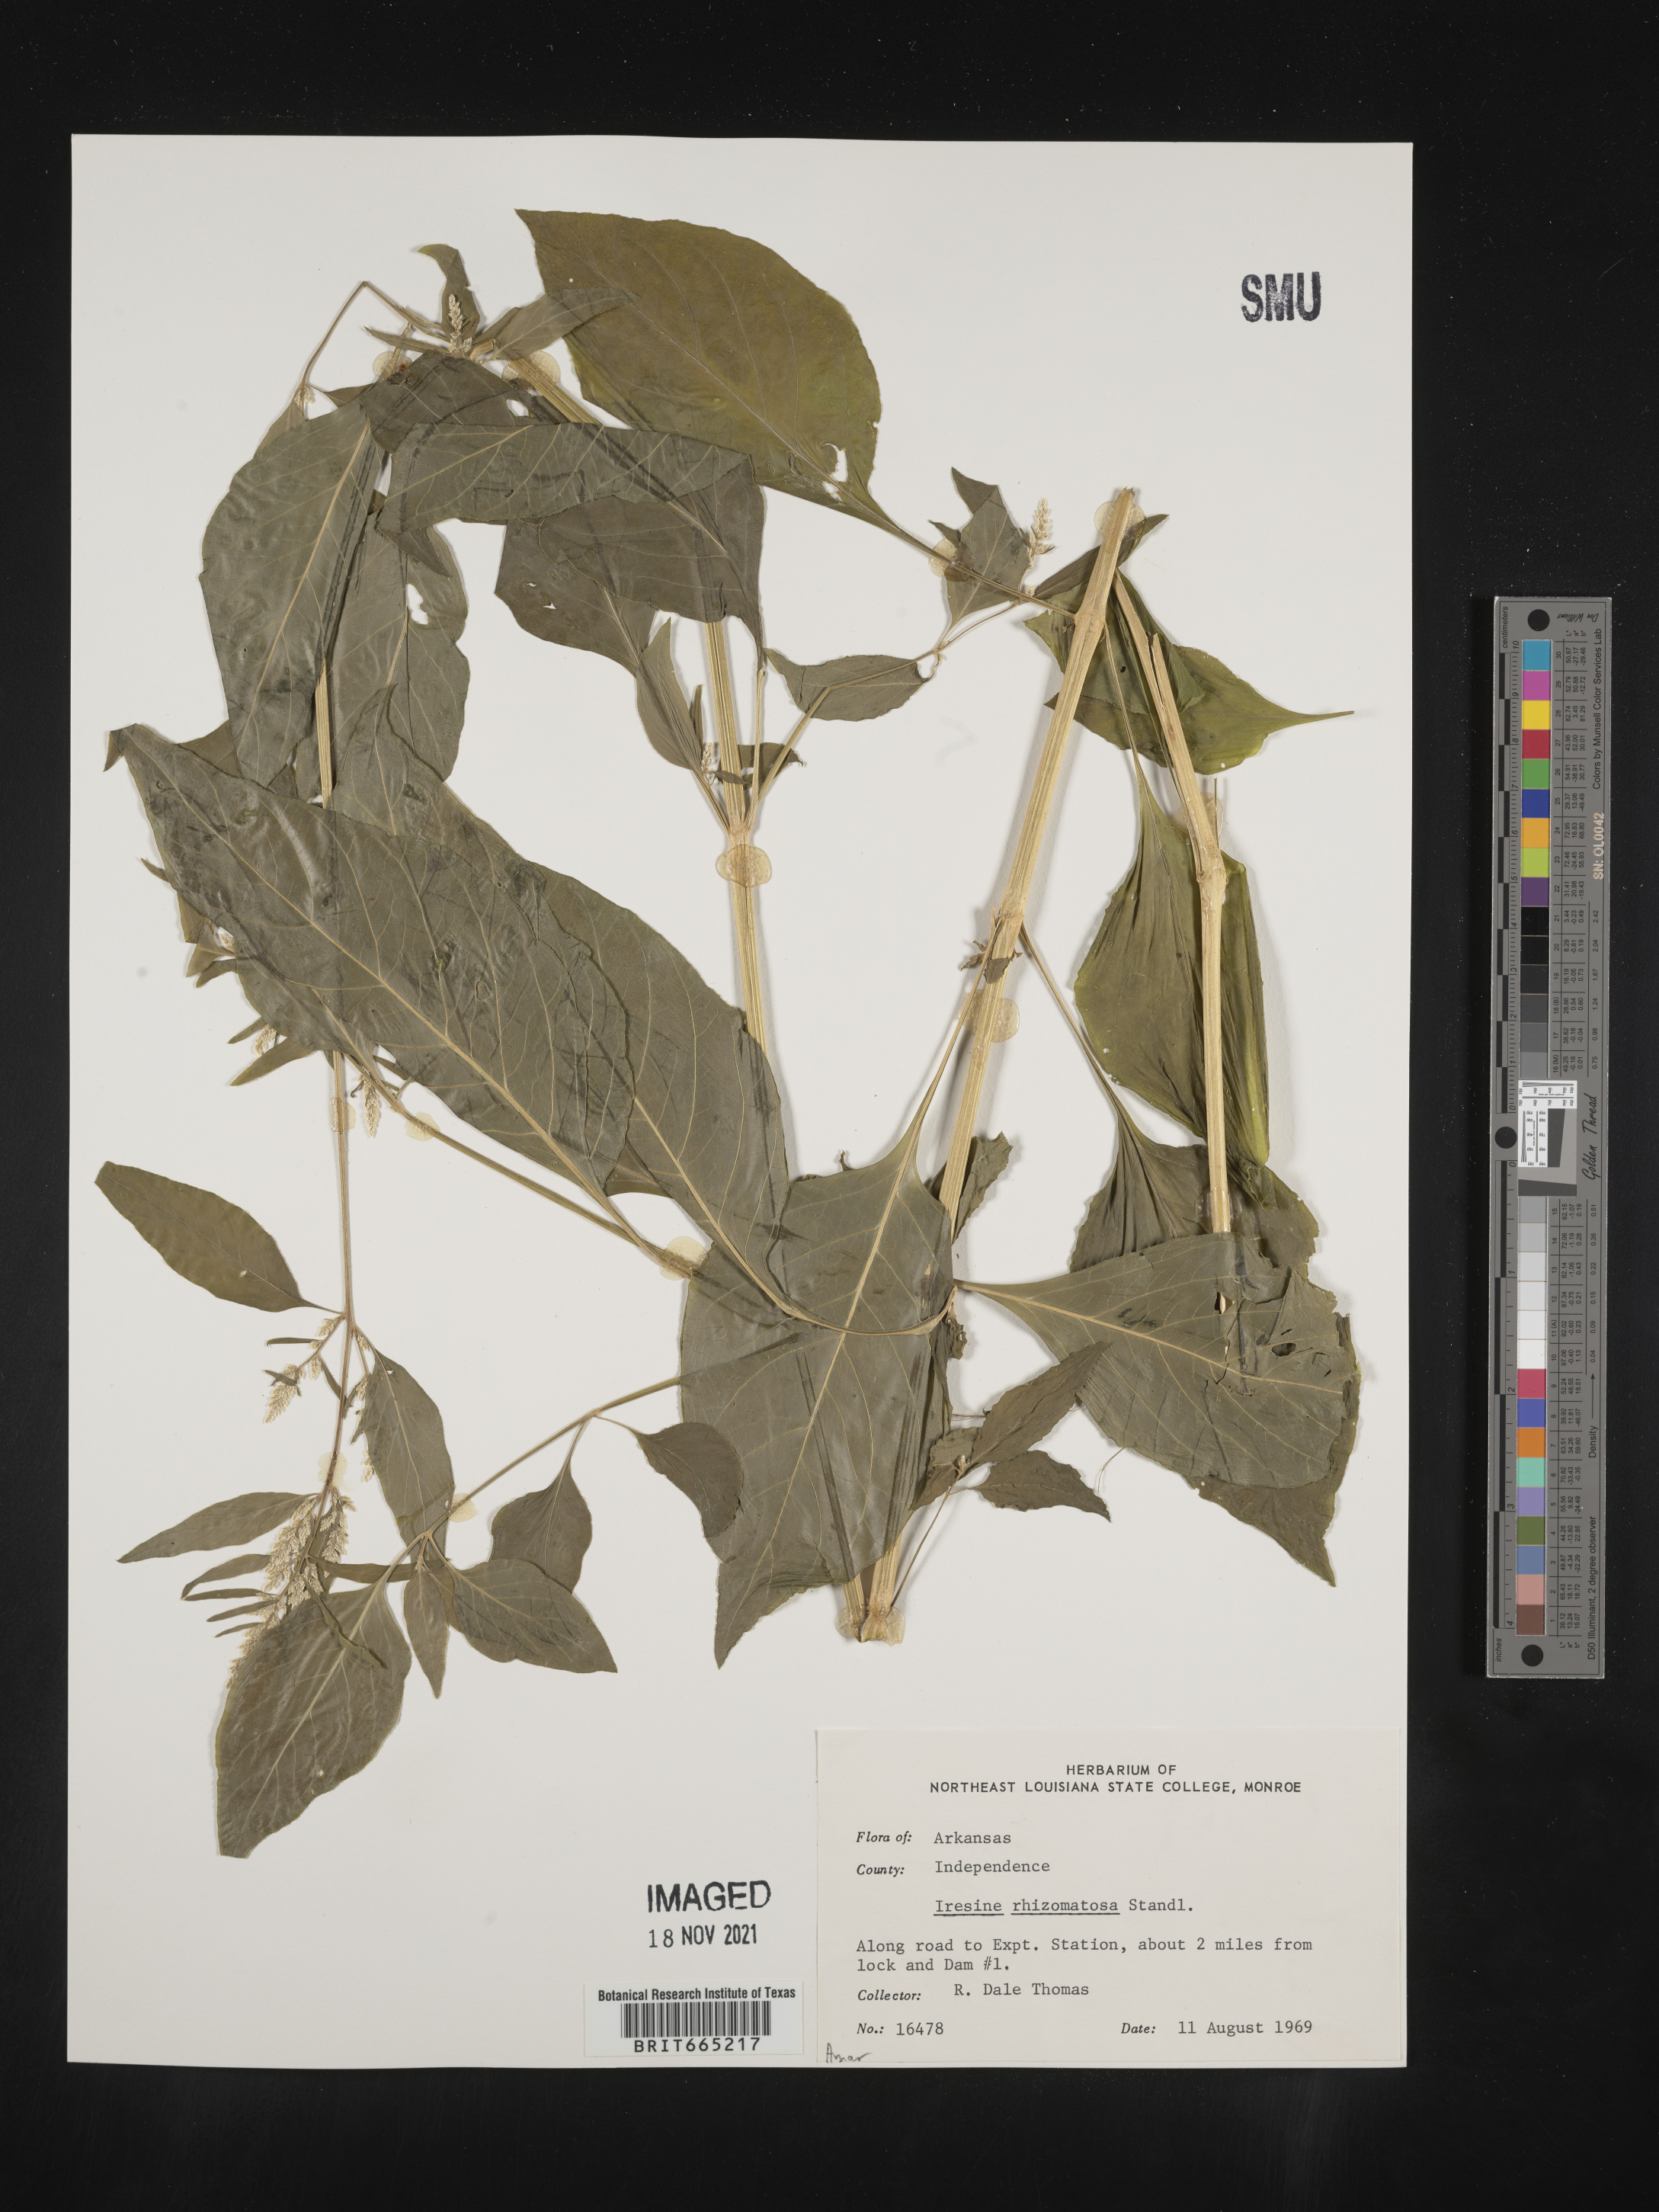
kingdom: Plantae
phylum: Tracheophyta
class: Magnoliopsida
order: Caryophyllales
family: Amaranthaceae
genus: Iresine
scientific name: Iresine rhizomatosa
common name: Juda's-bush
